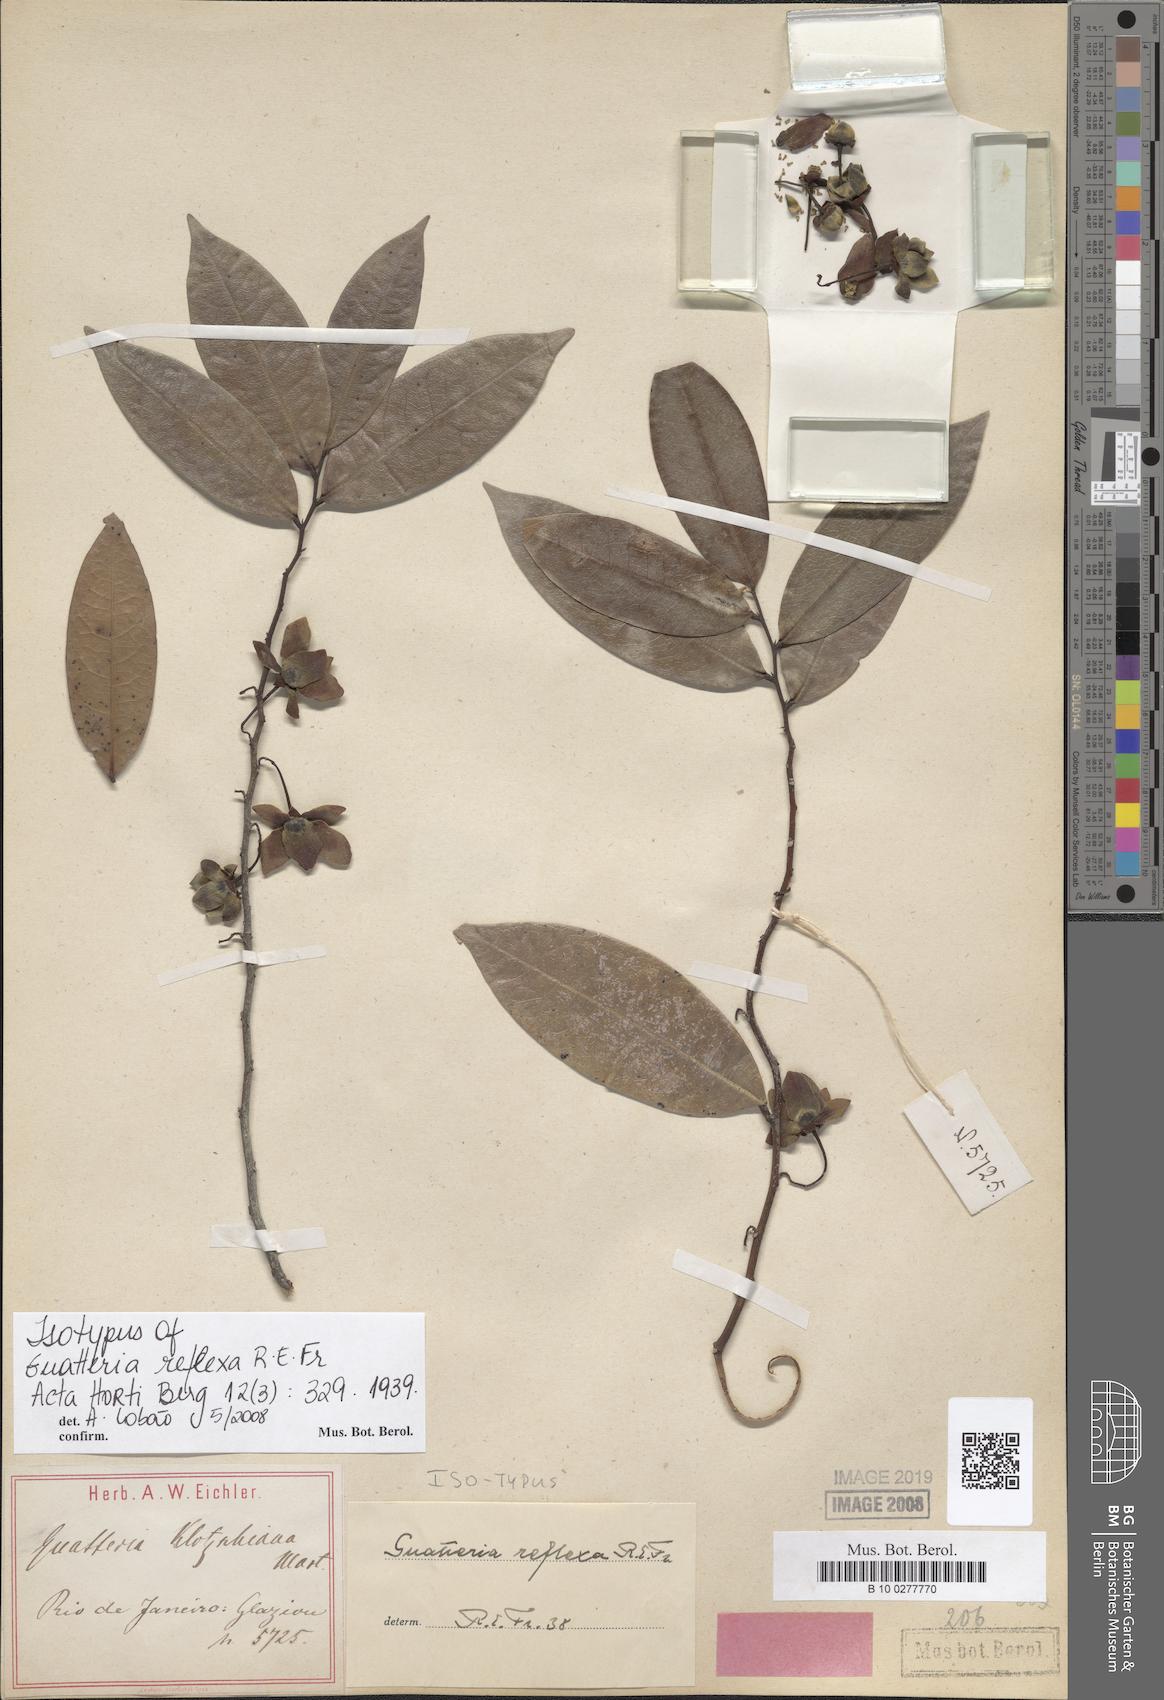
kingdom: Plantae
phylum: Tracheophyta
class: Magnoliopsida
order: Magnoliales
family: Annonaceae
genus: Guatteria
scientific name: Guatteria australis
